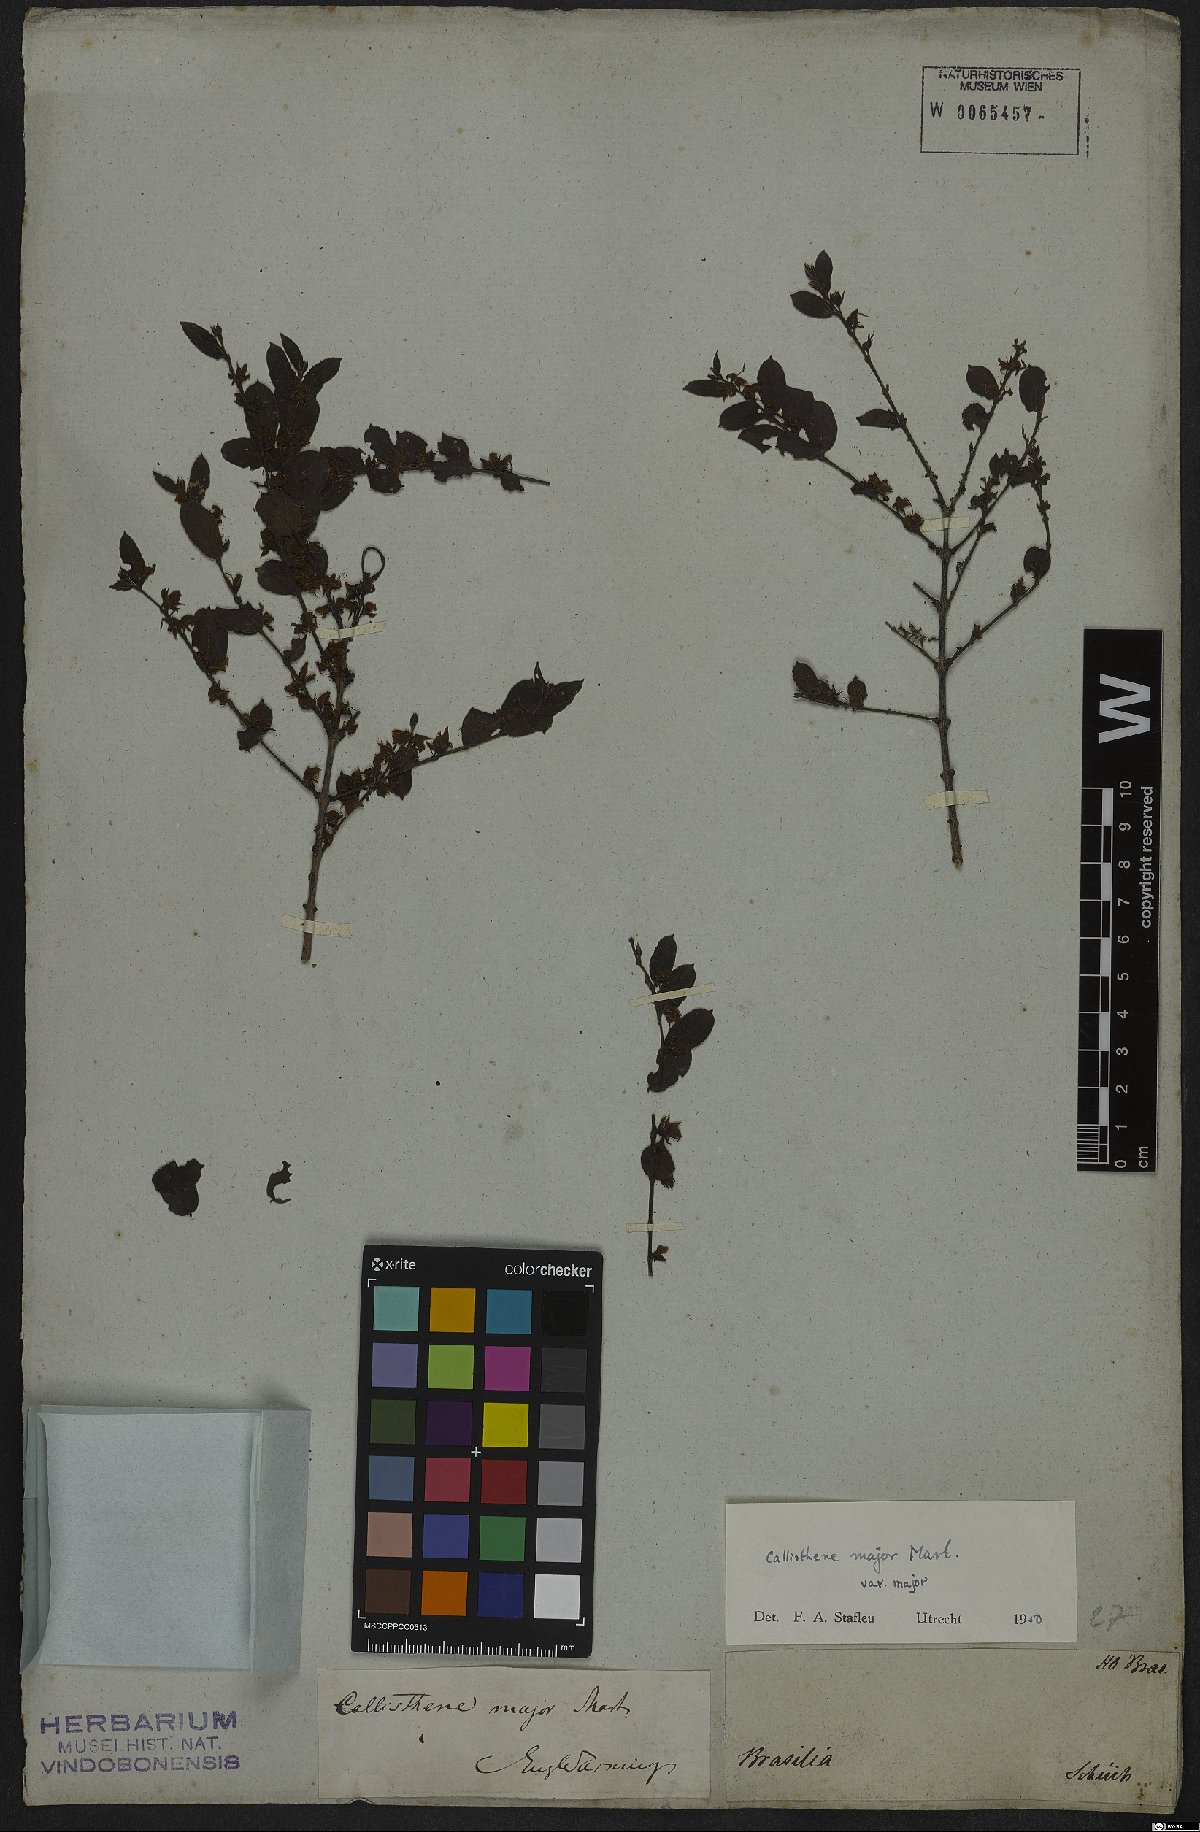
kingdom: Plantae
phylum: Tracheophyta
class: Magnoliopsida
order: Myrtales
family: Vochysiaceae
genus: Callisthene
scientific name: Callisthene major
